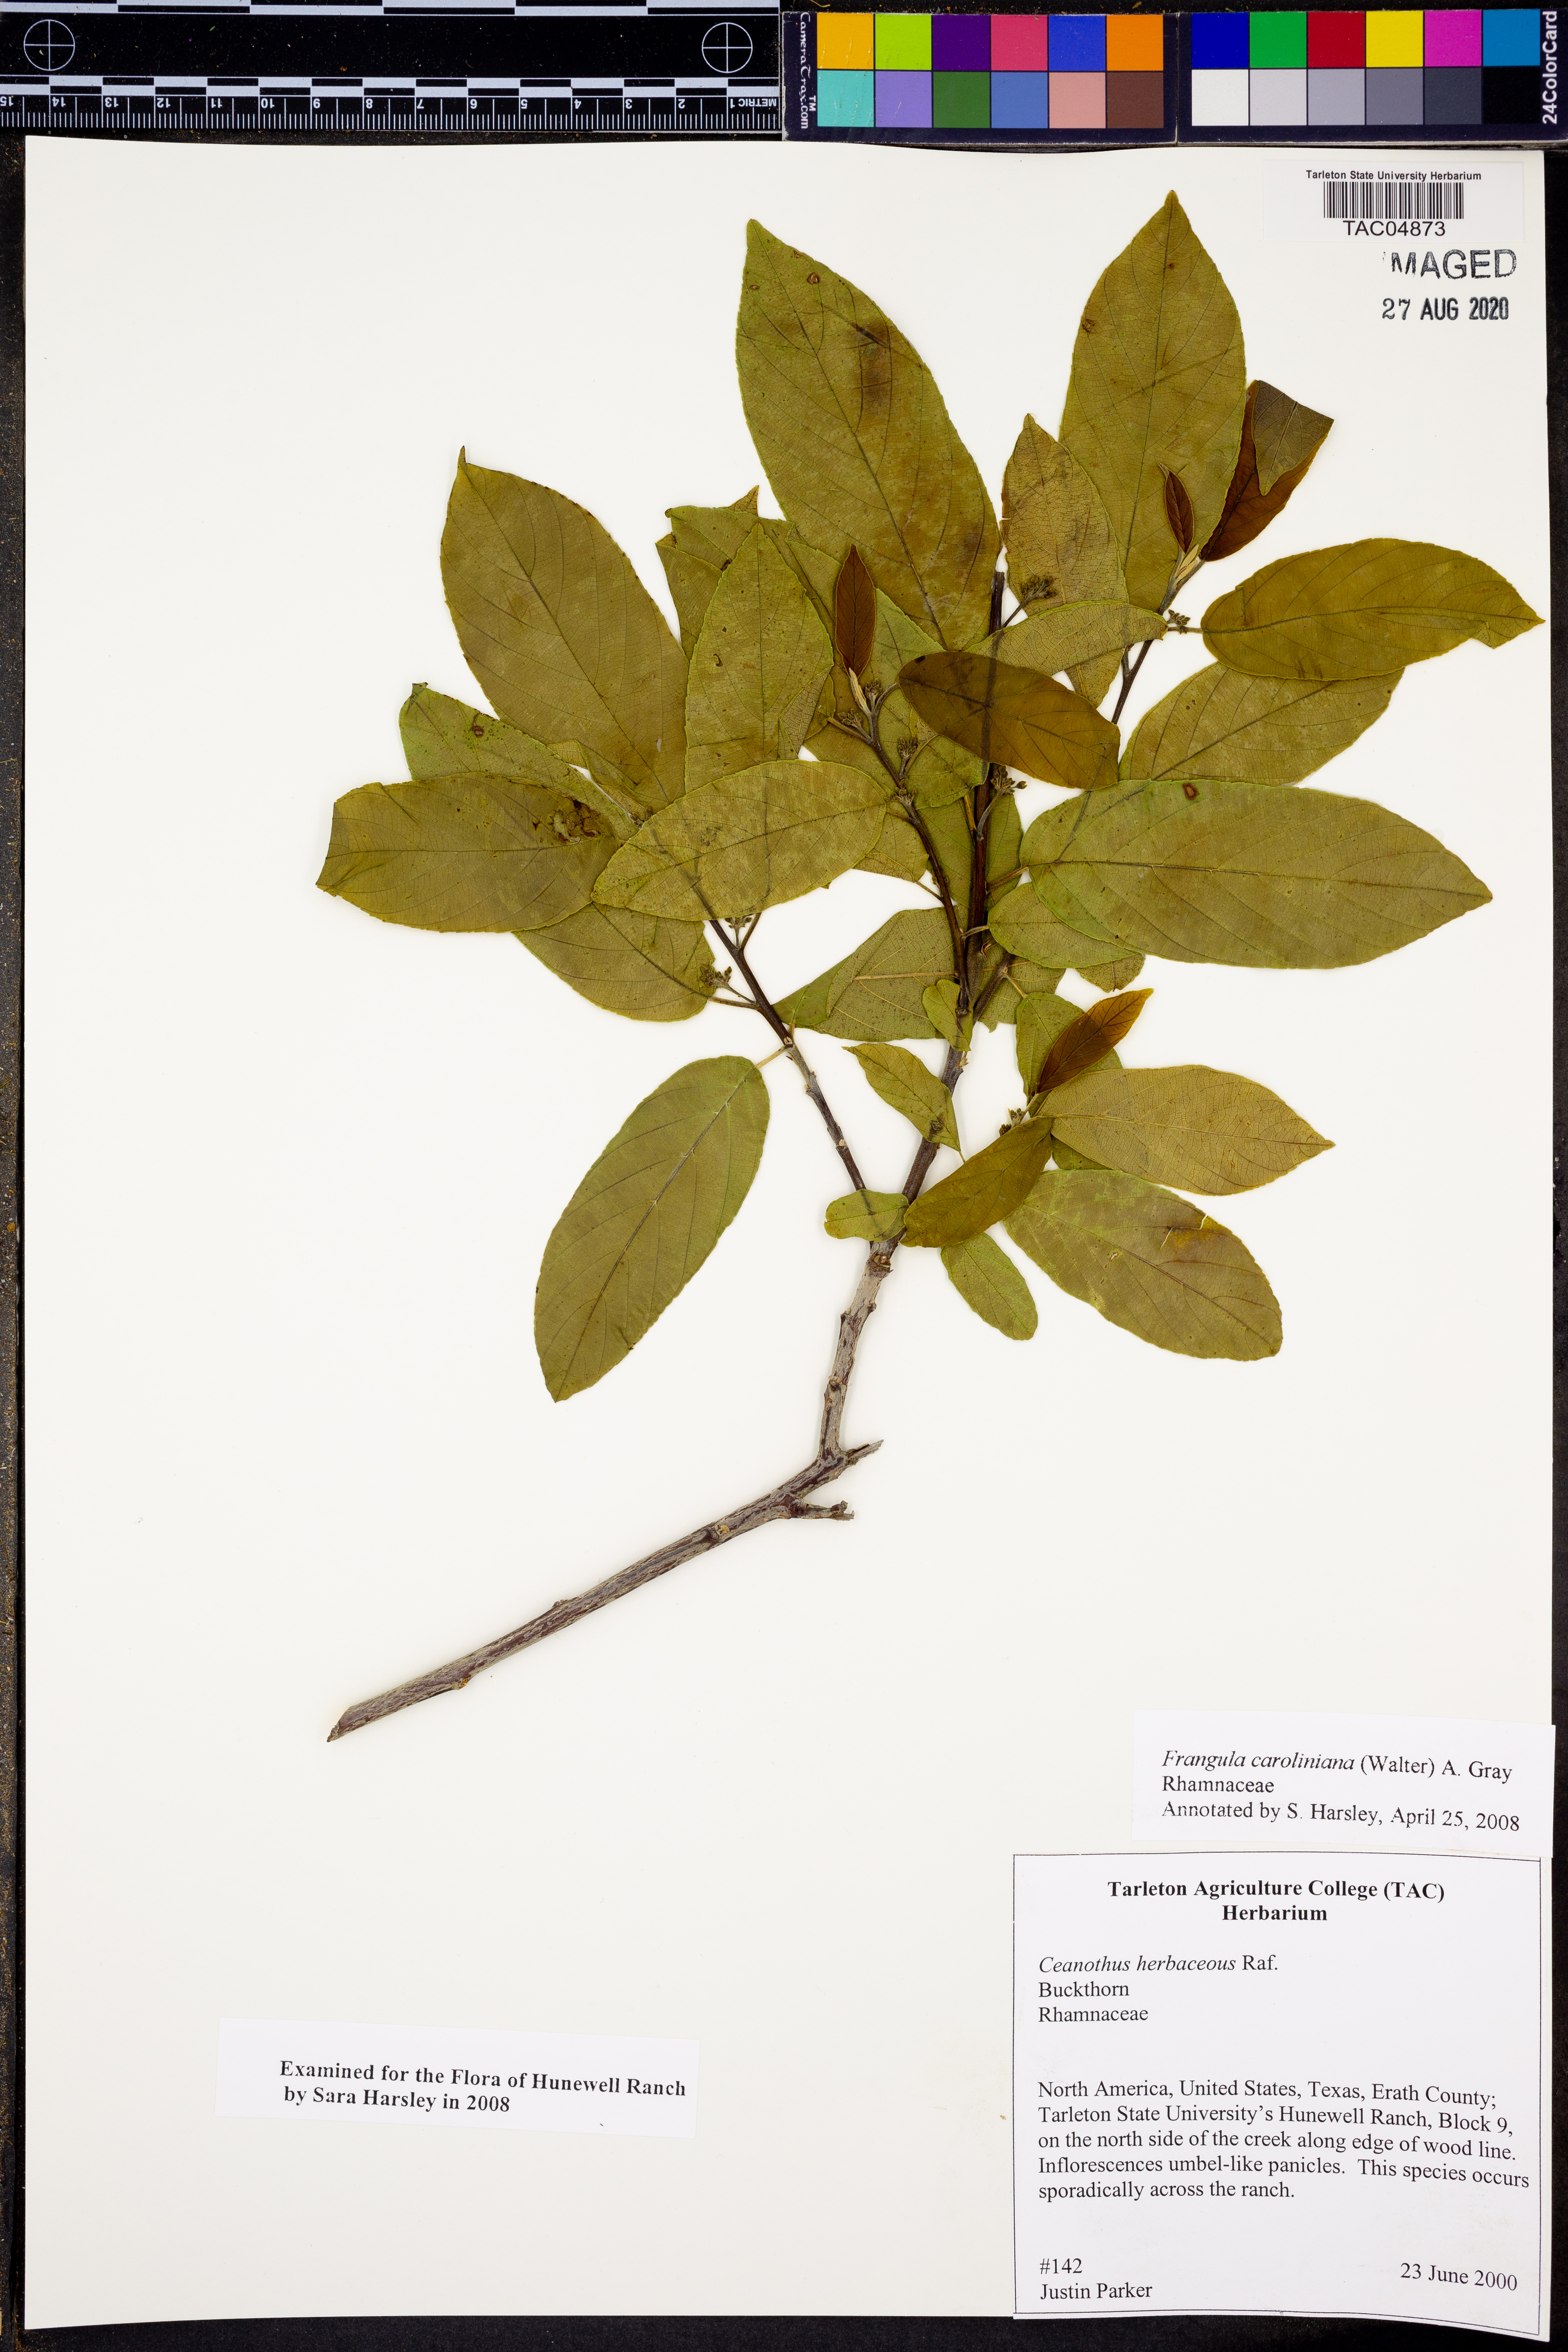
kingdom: Plantae
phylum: Tracheophyta
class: Magnoliopsida
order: Rosales
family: Rhamnaceae
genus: Frangula
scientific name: Frangula caroliniana
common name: Carolina buckthorn
